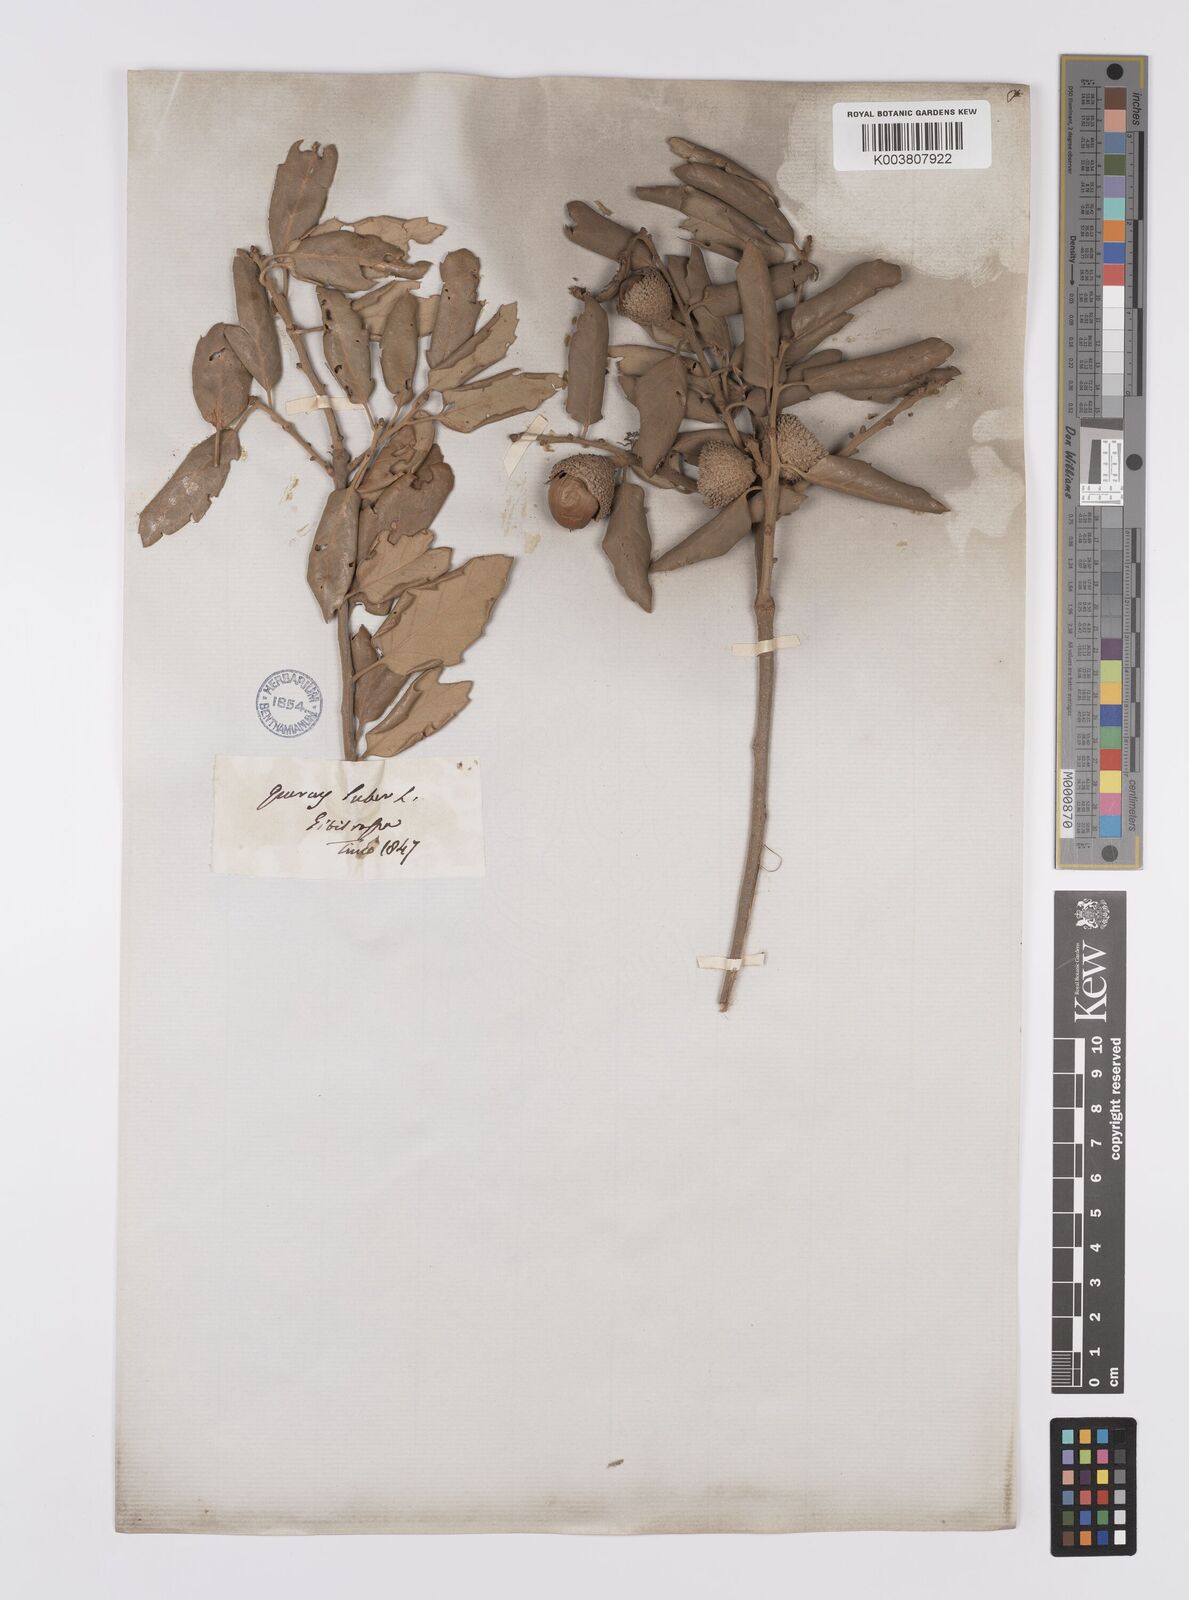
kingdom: Plantae
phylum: Tracheophyta
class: Magnoliopsida
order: Fagales
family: Fagaceae
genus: Quercus
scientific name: Quercus suber
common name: Cork oak
